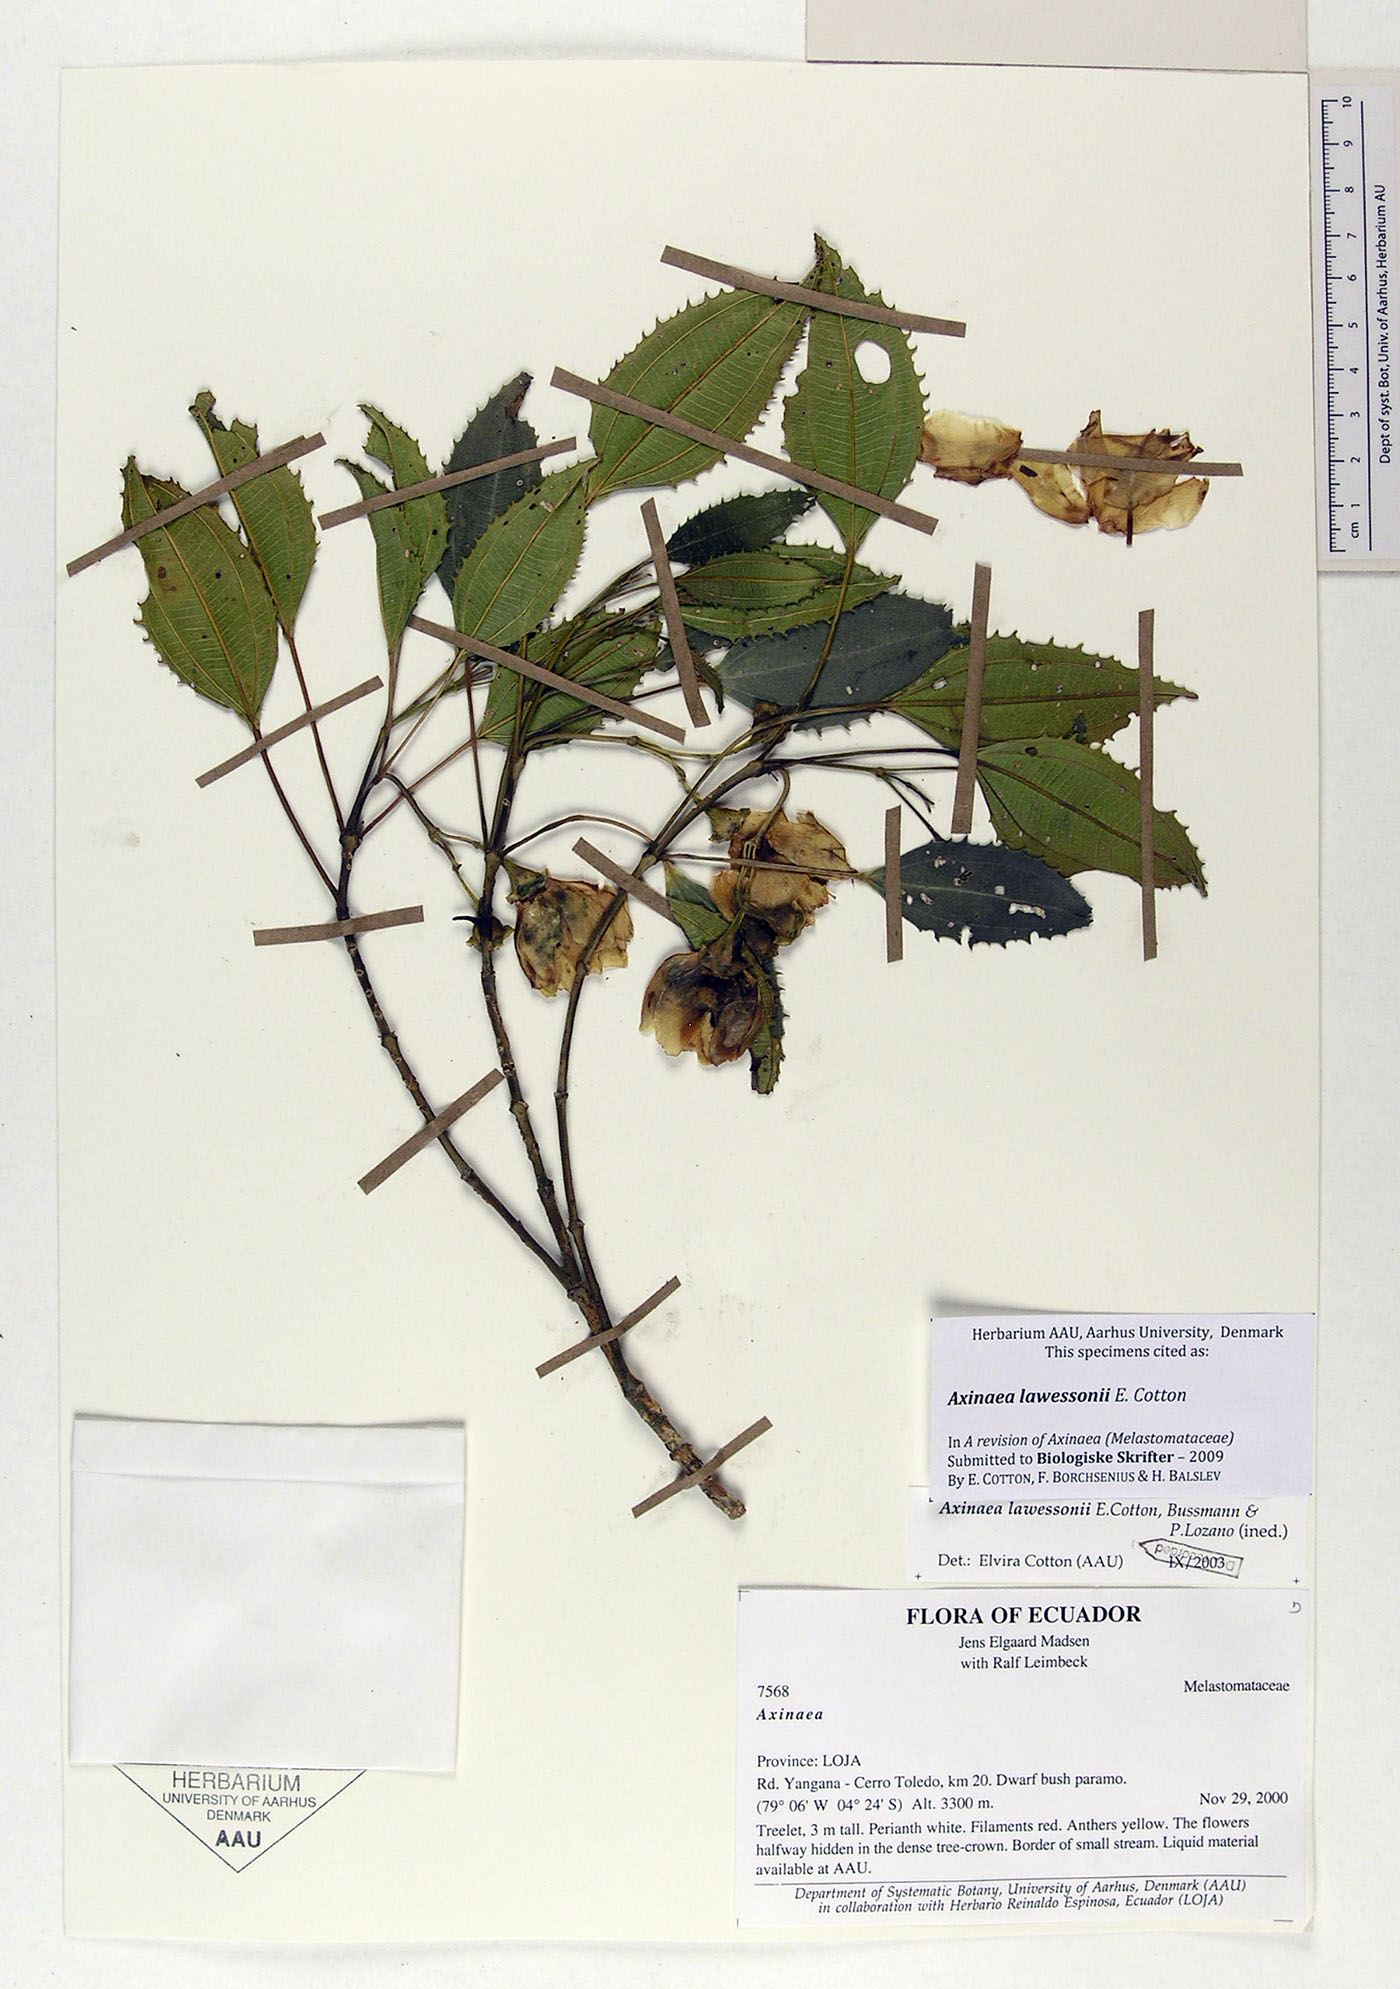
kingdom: Plantae
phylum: Tracheophyta
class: Magnoliopsida
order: Myrtales
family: Melastomataceae
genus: Axinaea
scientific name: Axinaea lawessonii
